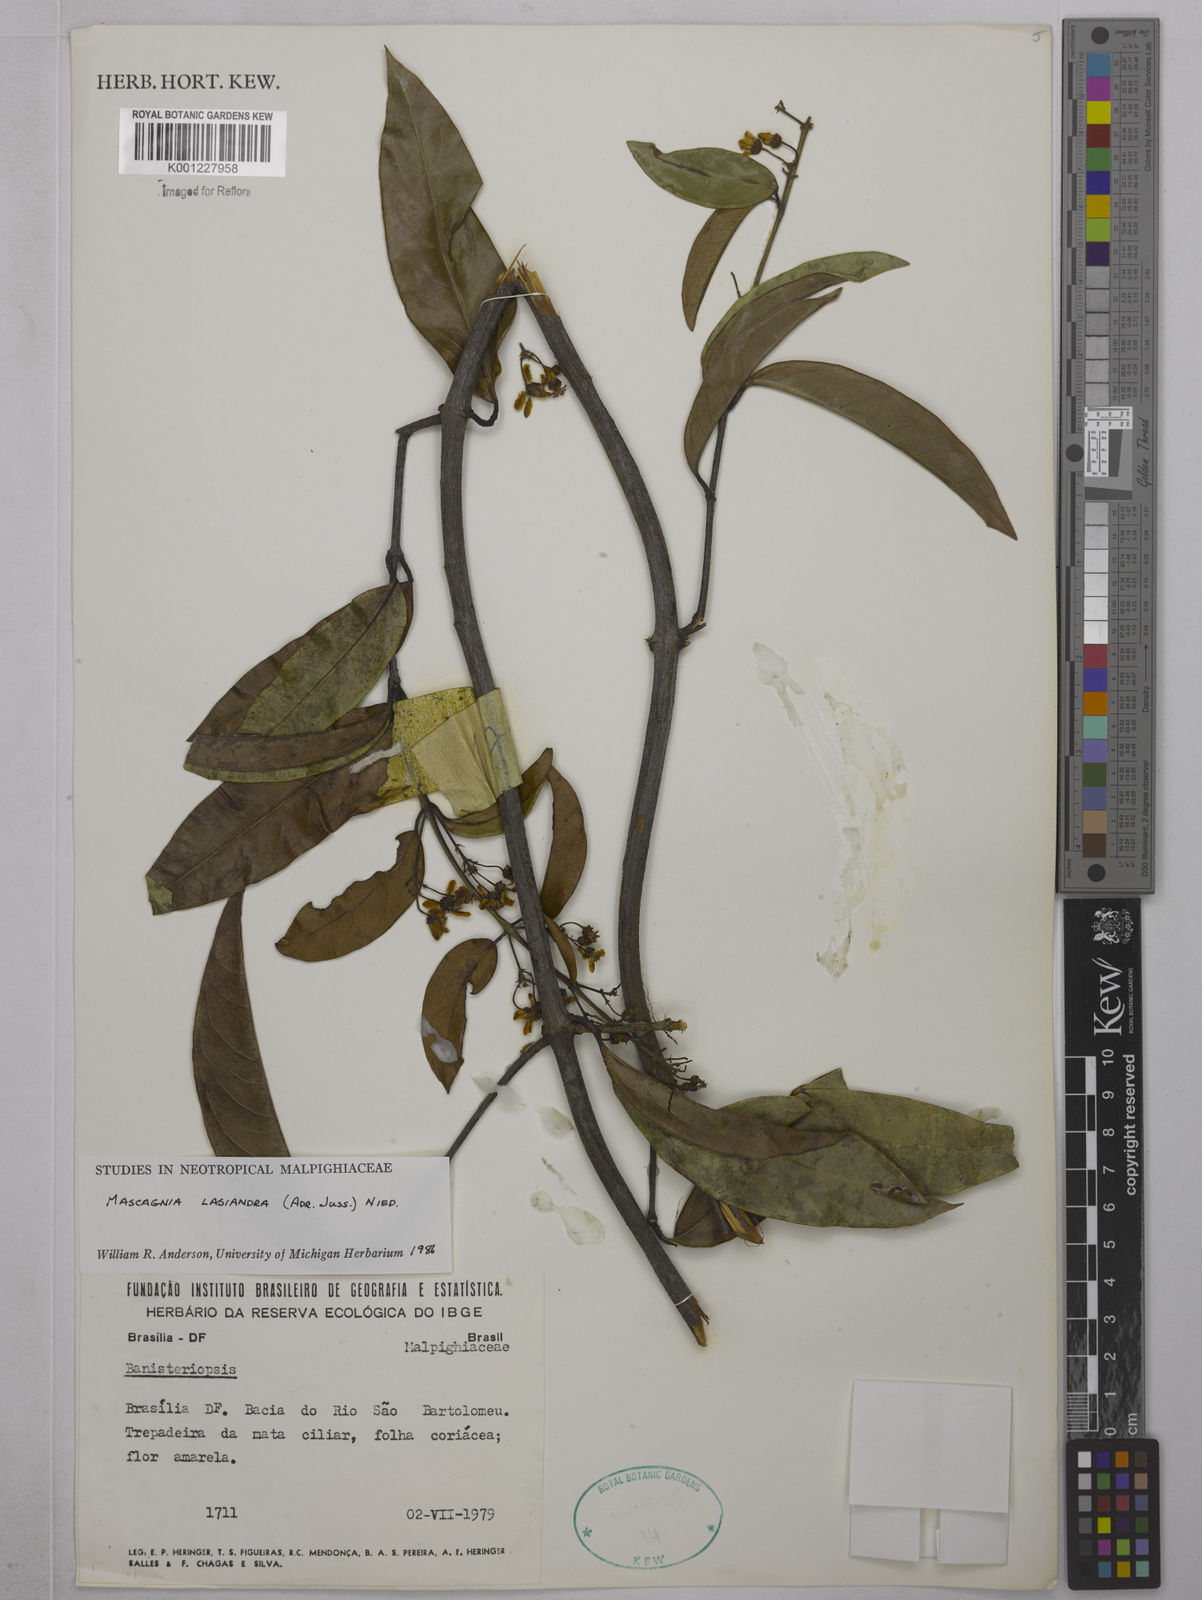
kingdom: Plantae
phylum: Tracheophyta
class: Magnoliopsida
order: Malpighiales
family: Malpighiaceae
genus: Niedenzuella
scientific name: Niedenzuella lasiandra
